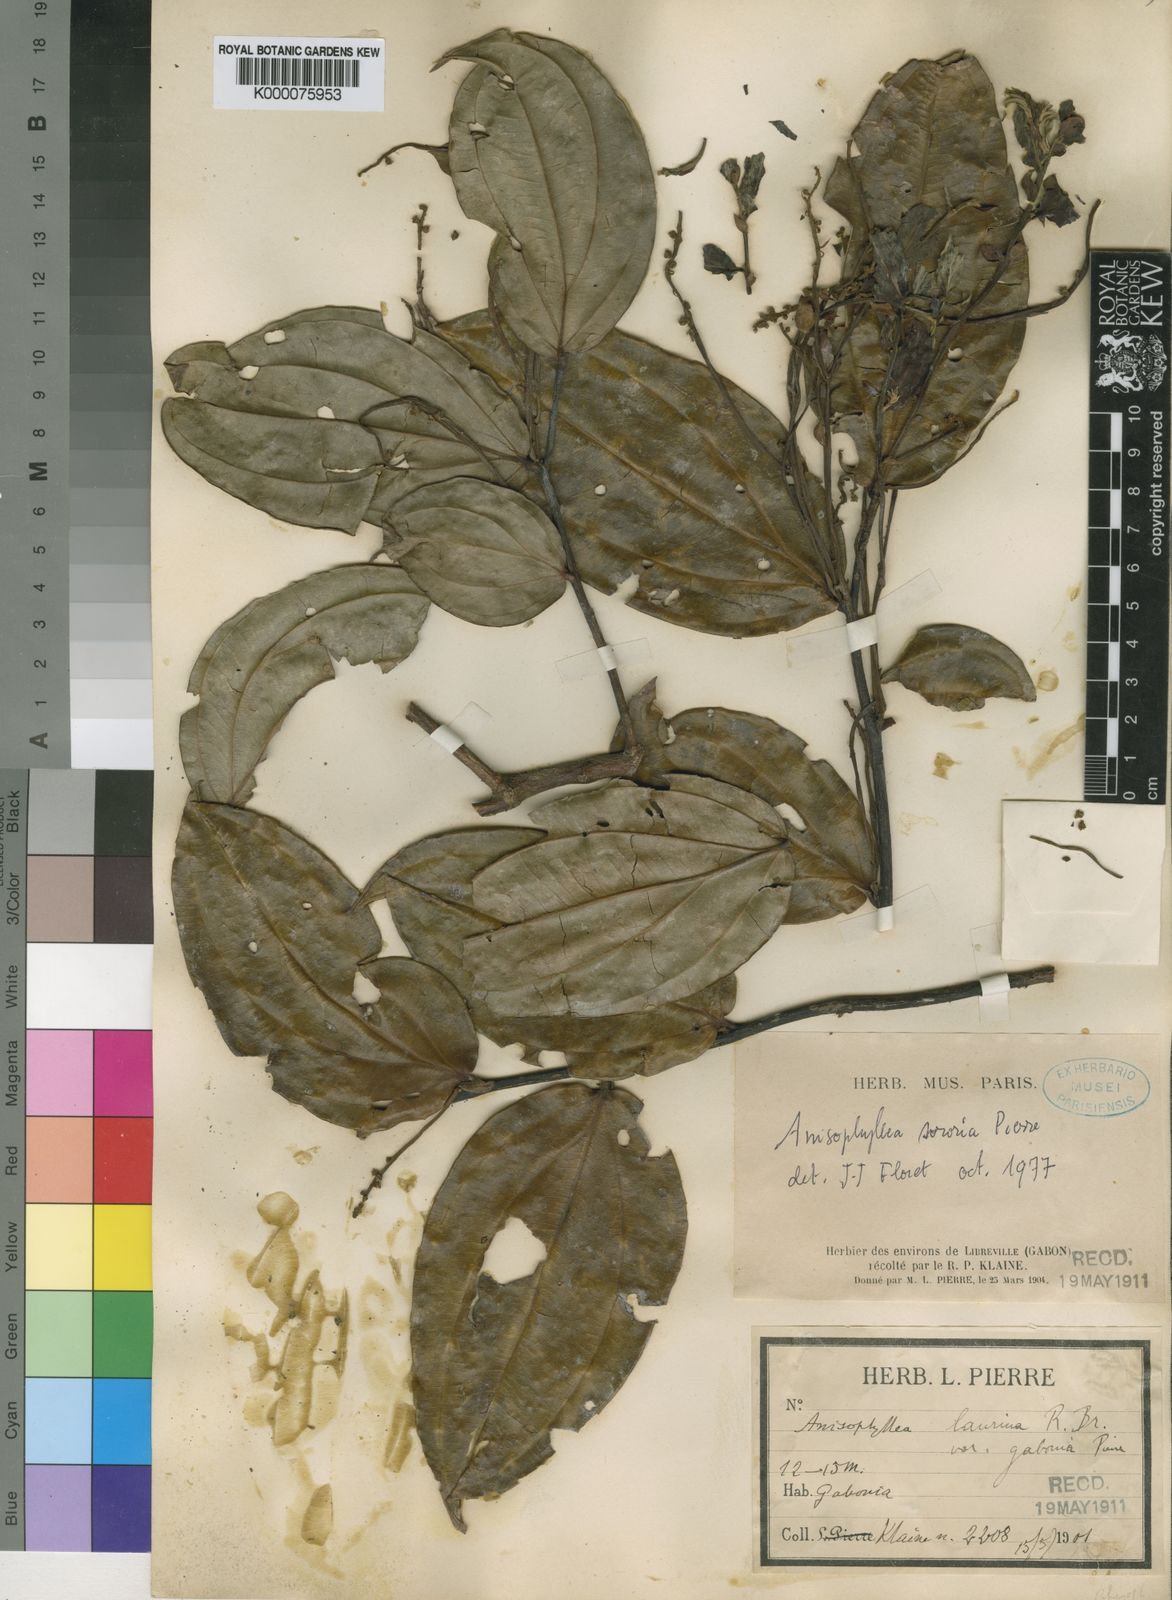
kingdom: Plantae
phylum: Tracheophyta
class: Magnoliopsida
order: Cucurbitales
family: Anisophylleaceae
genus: Anisophyllea
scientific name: Anisophyllea mayumbensis
